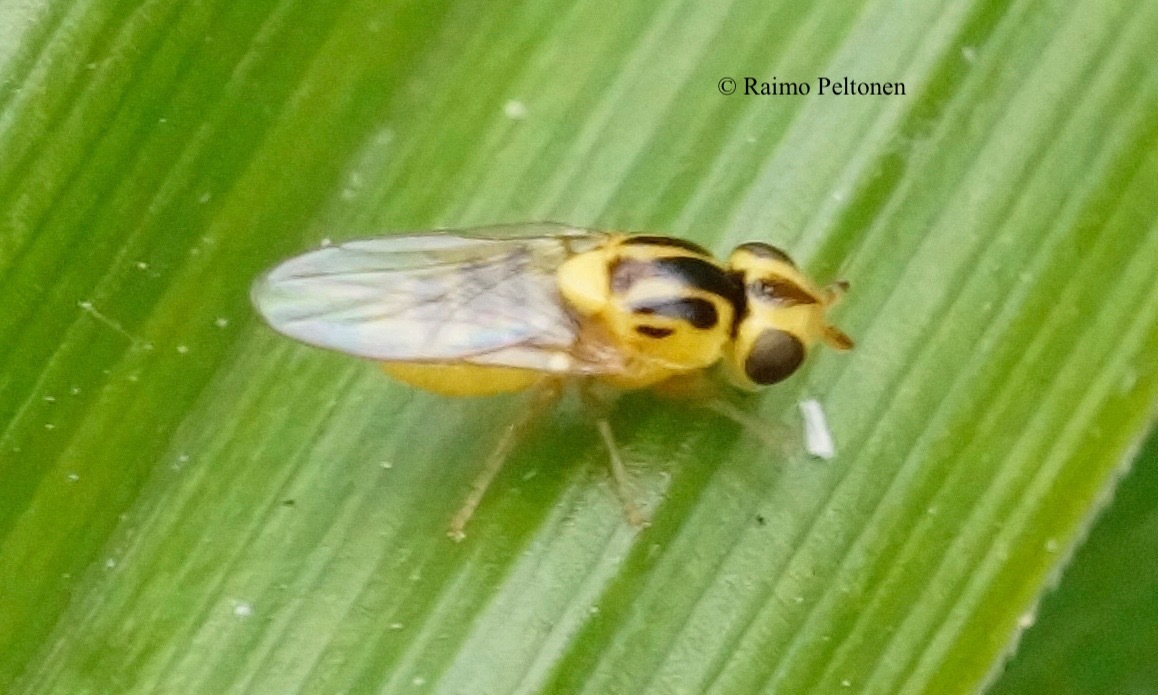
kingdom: Animalia
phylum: Arthropoda
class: Insecta
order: Diptera
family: Chloropidae
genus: Chlorops
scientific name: Chlorops scalaris
